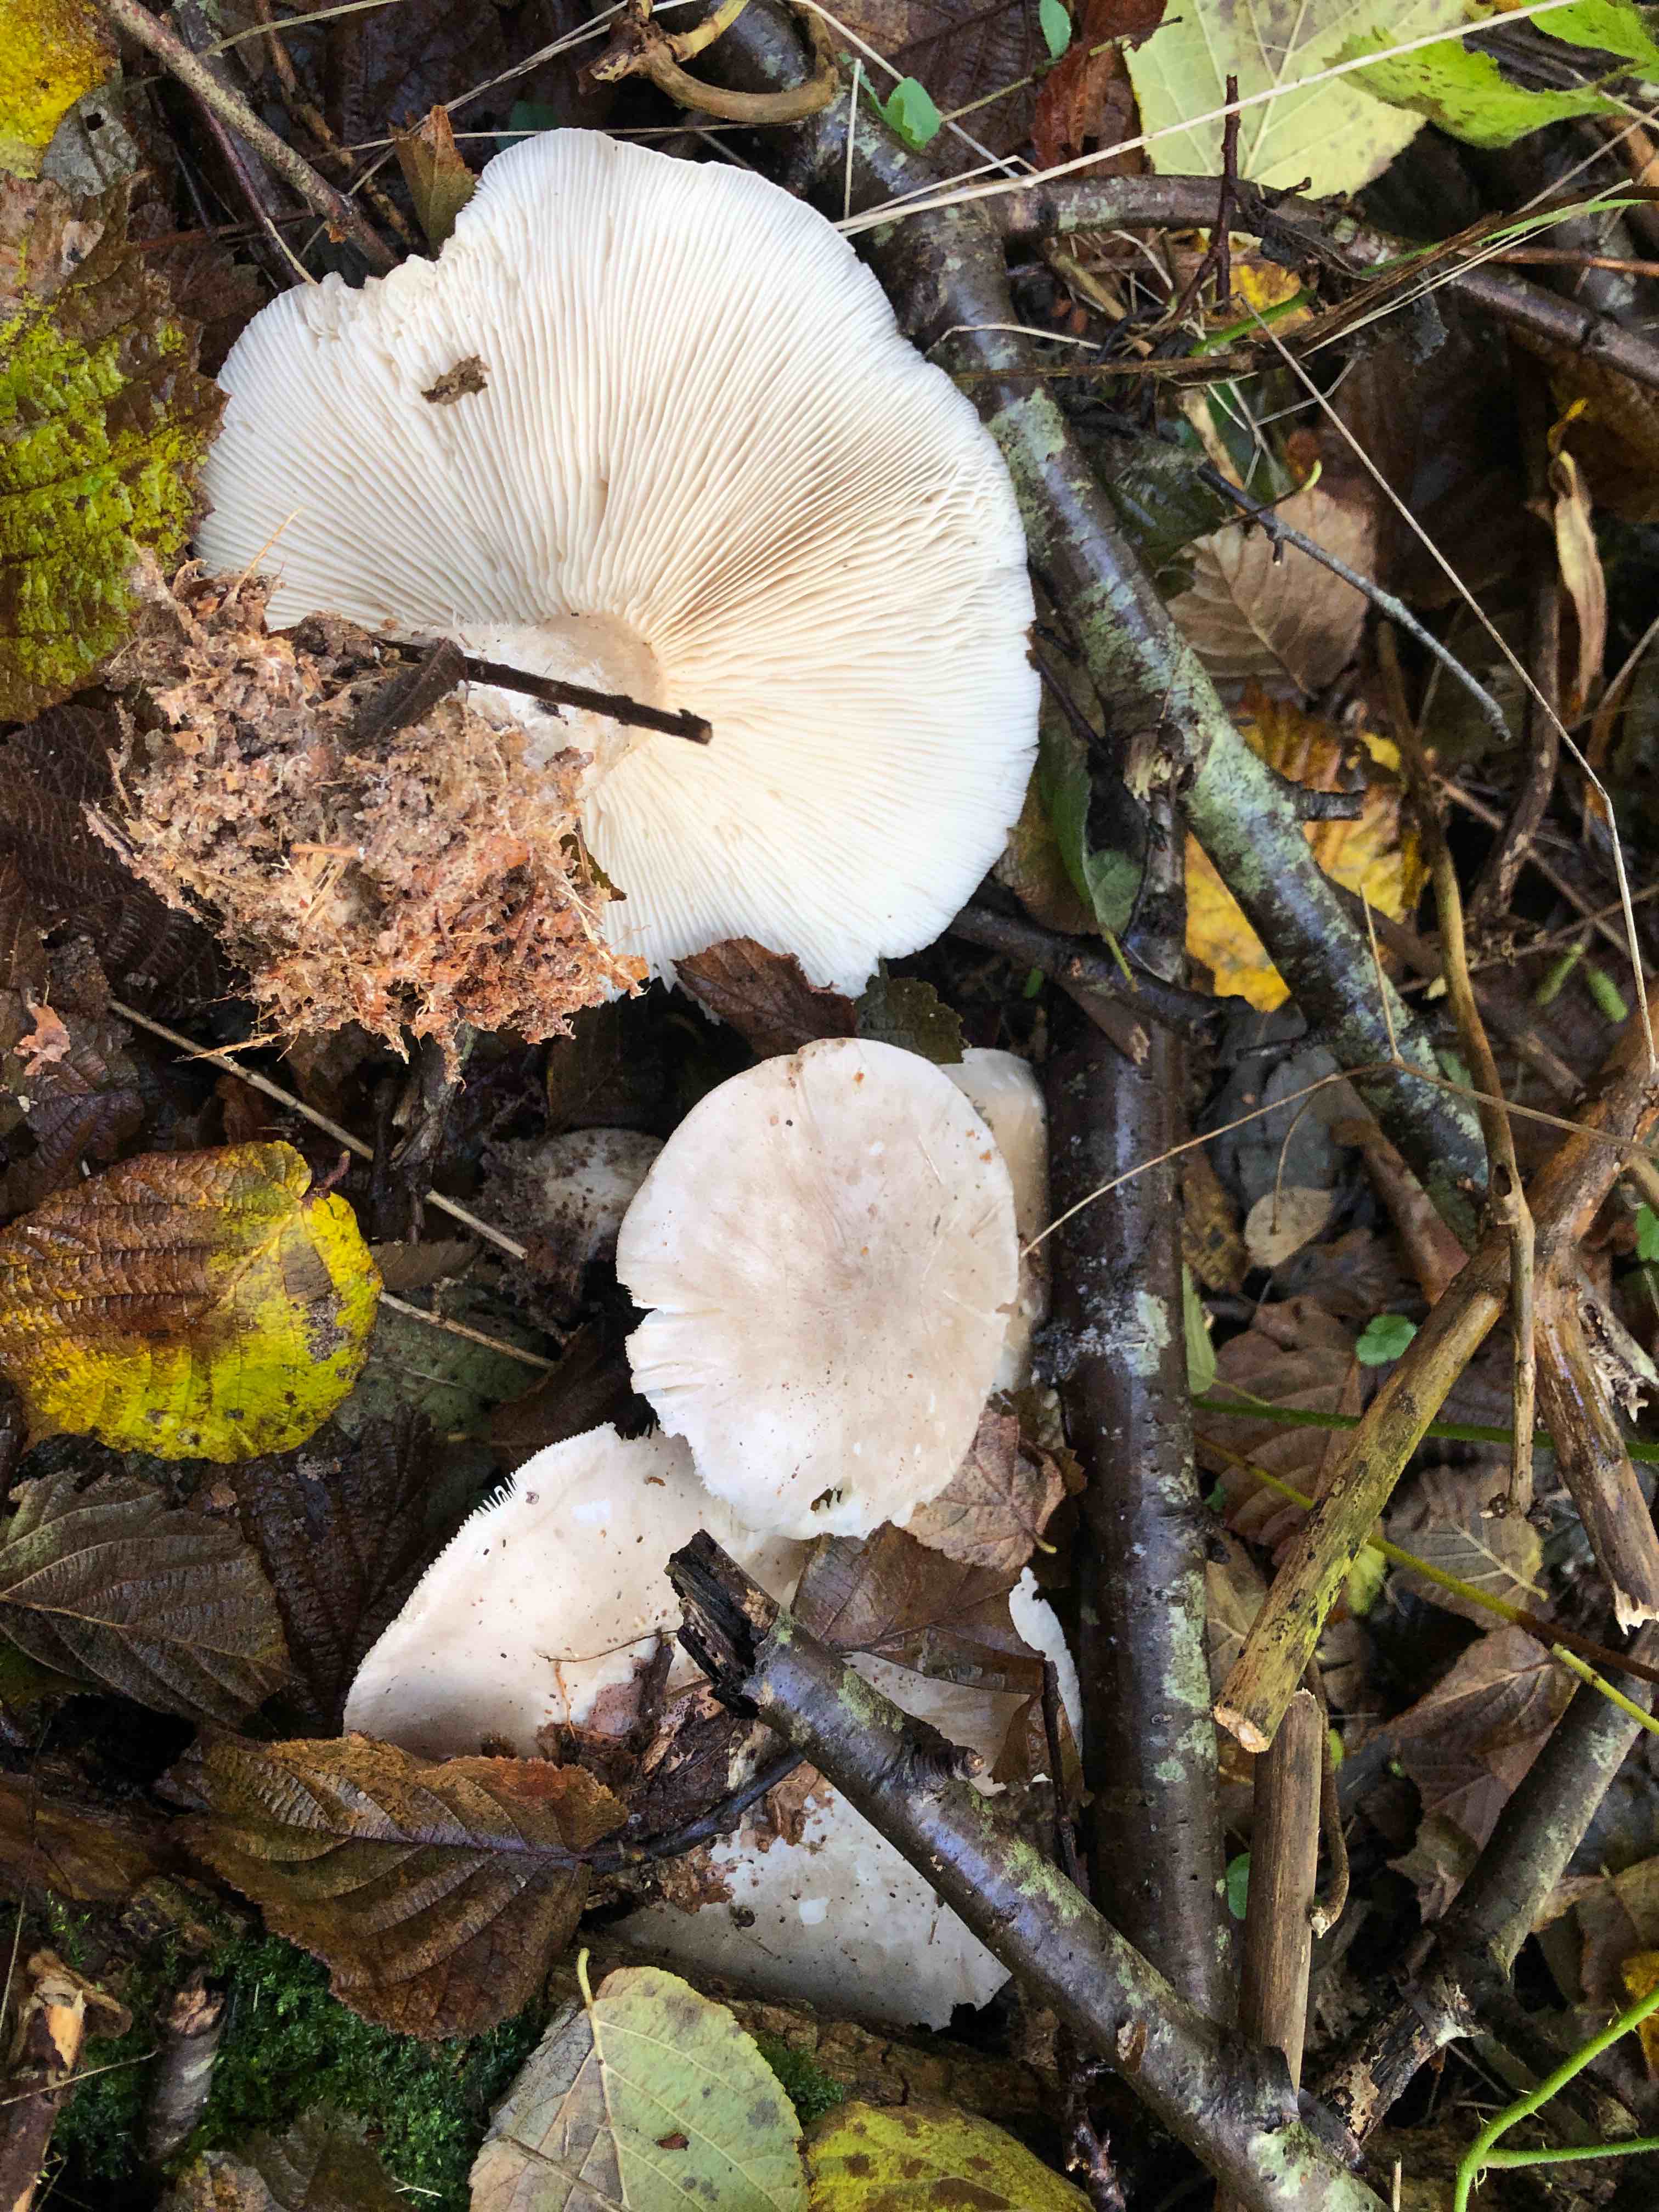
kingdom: Fungi
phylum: Basidiomycota
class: Agaricomycetes
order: Agaricales
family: Tricholomataceae
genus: Clitocybe
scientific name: Clitocybe nebularis
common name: tåge-tragthat
